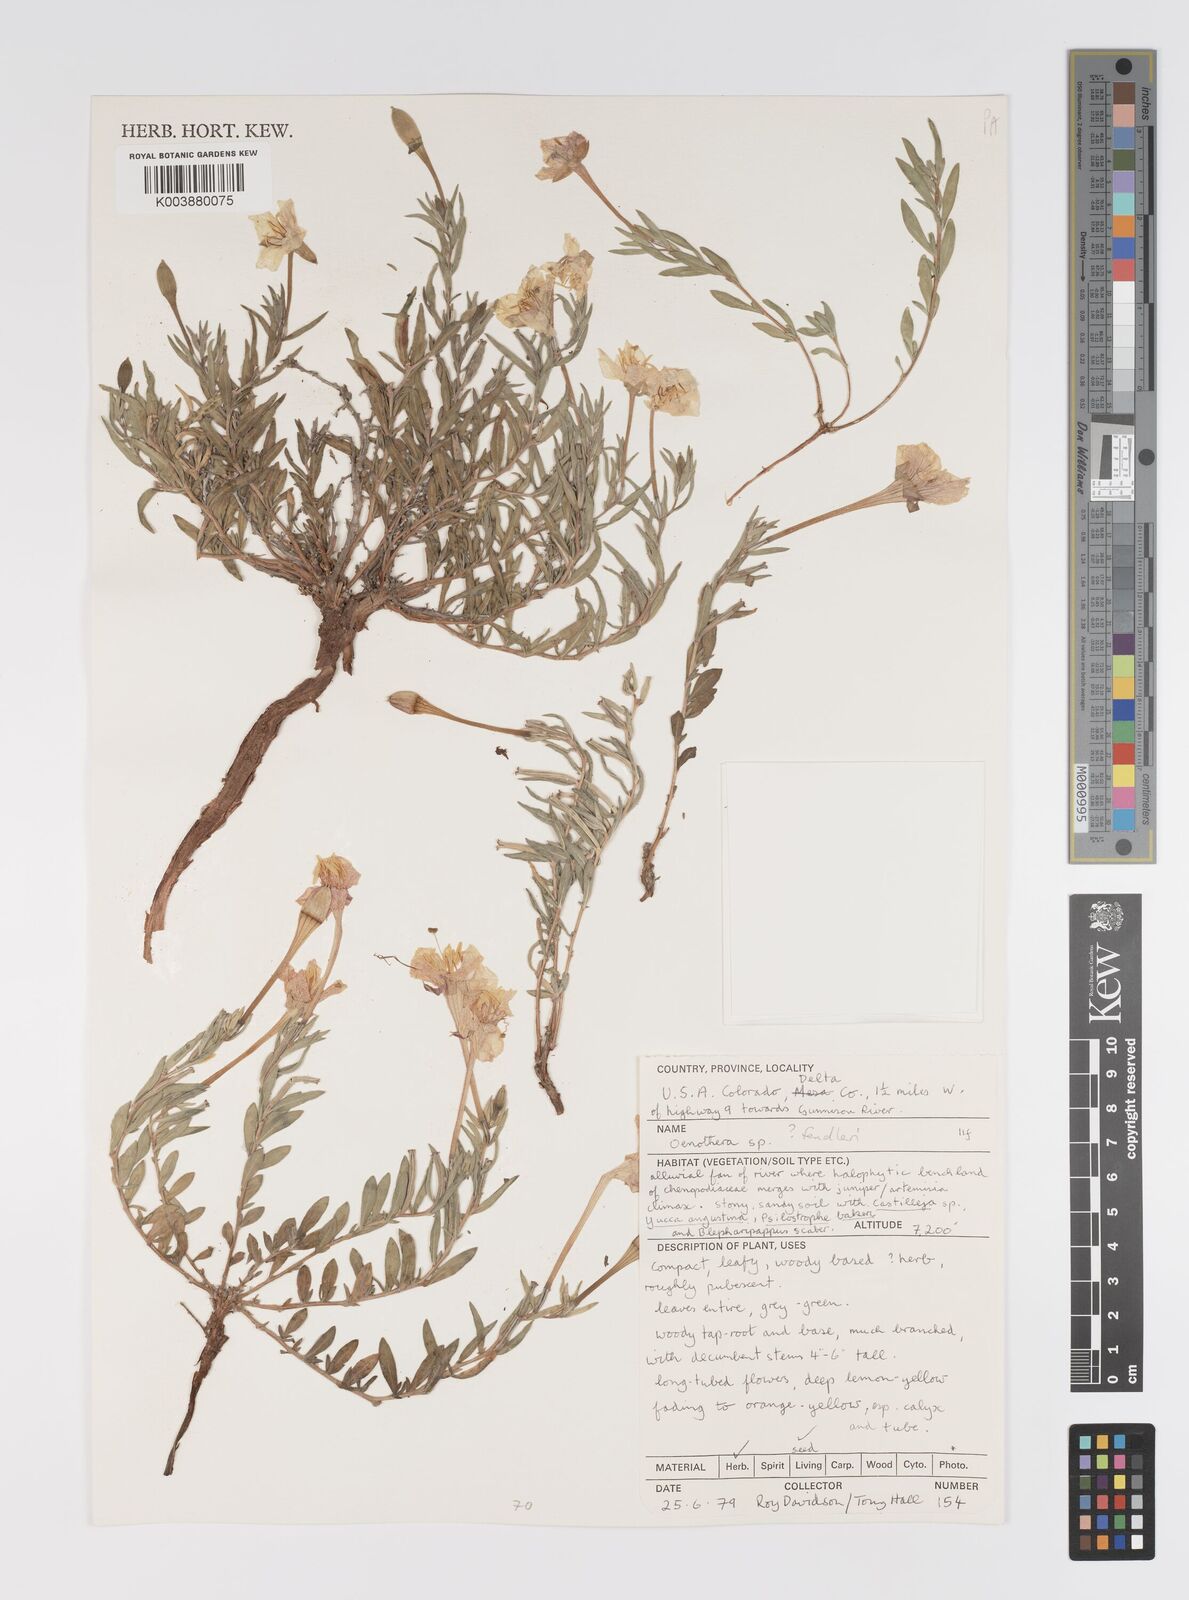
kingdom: Plantae
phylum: Tracheophyta
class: Magnoliopsida
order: Myrtales
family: Onagraceae
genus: Oenothera
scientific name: Oenothera hartwegii
